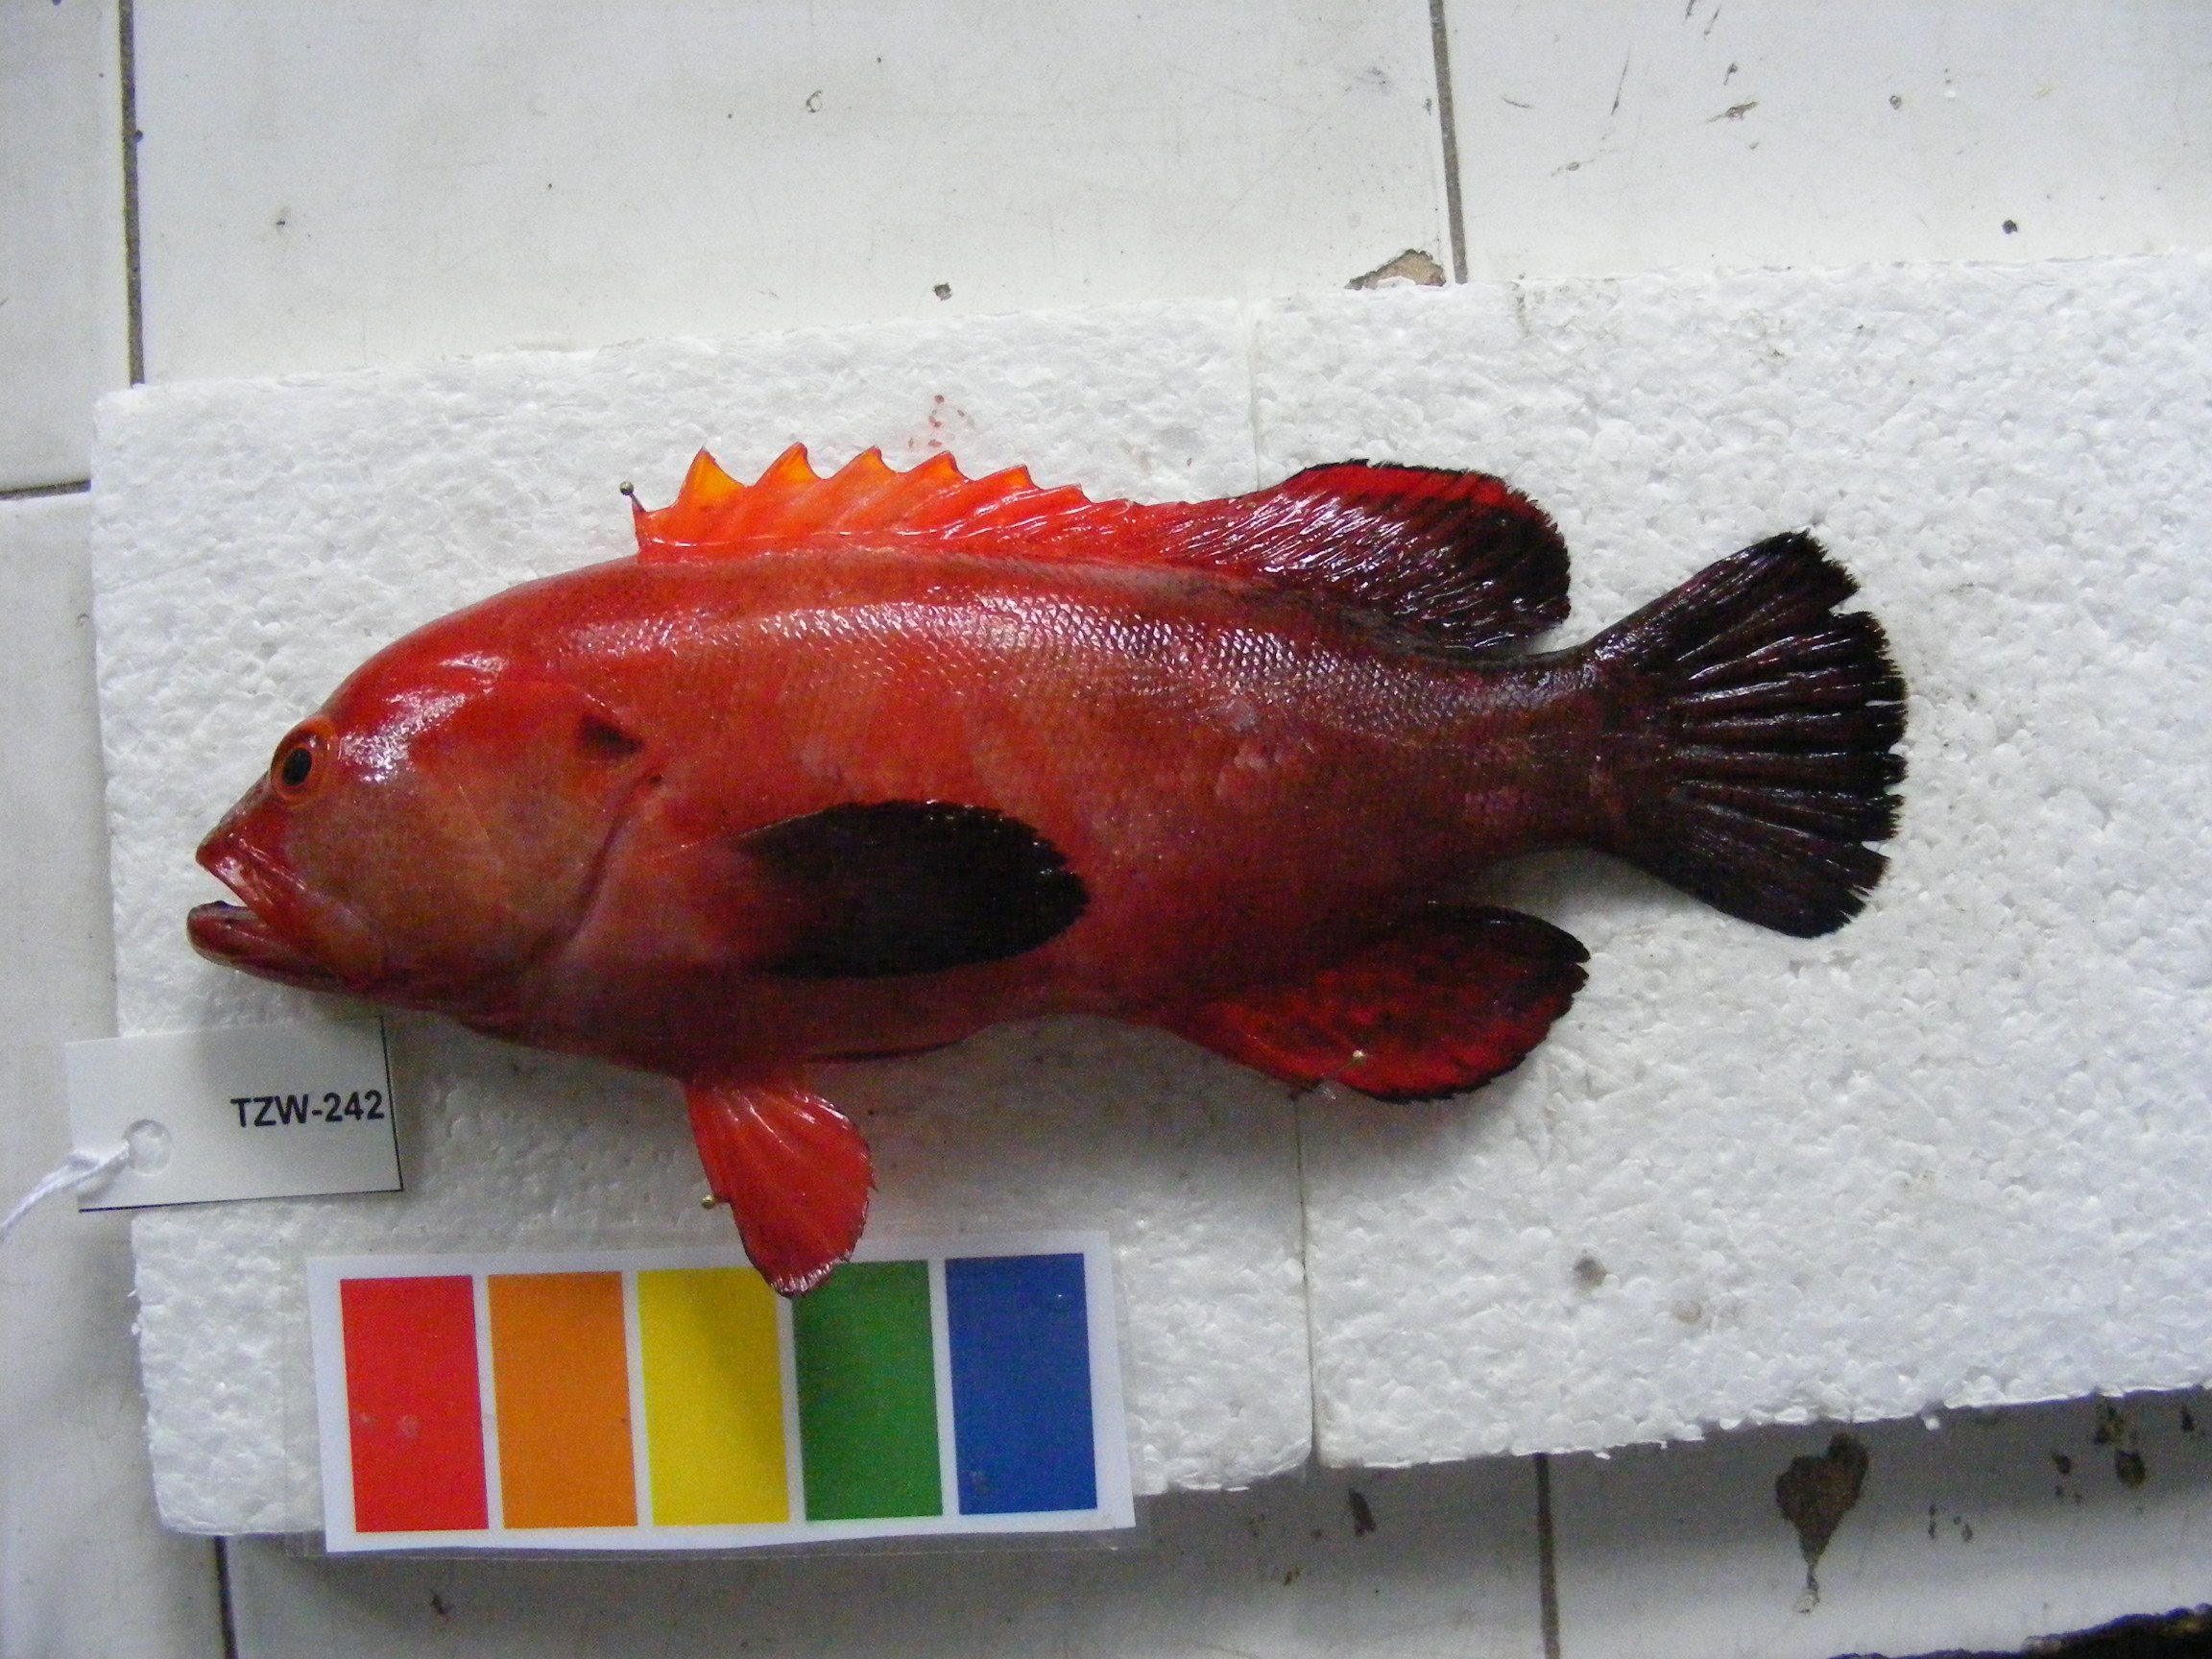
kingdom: Animalia
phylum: Chordata
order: Perciformes
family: Serranidae
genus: Cephalopholis
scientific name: Cephalopholis nigripinnis
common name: Duskyfin hind
